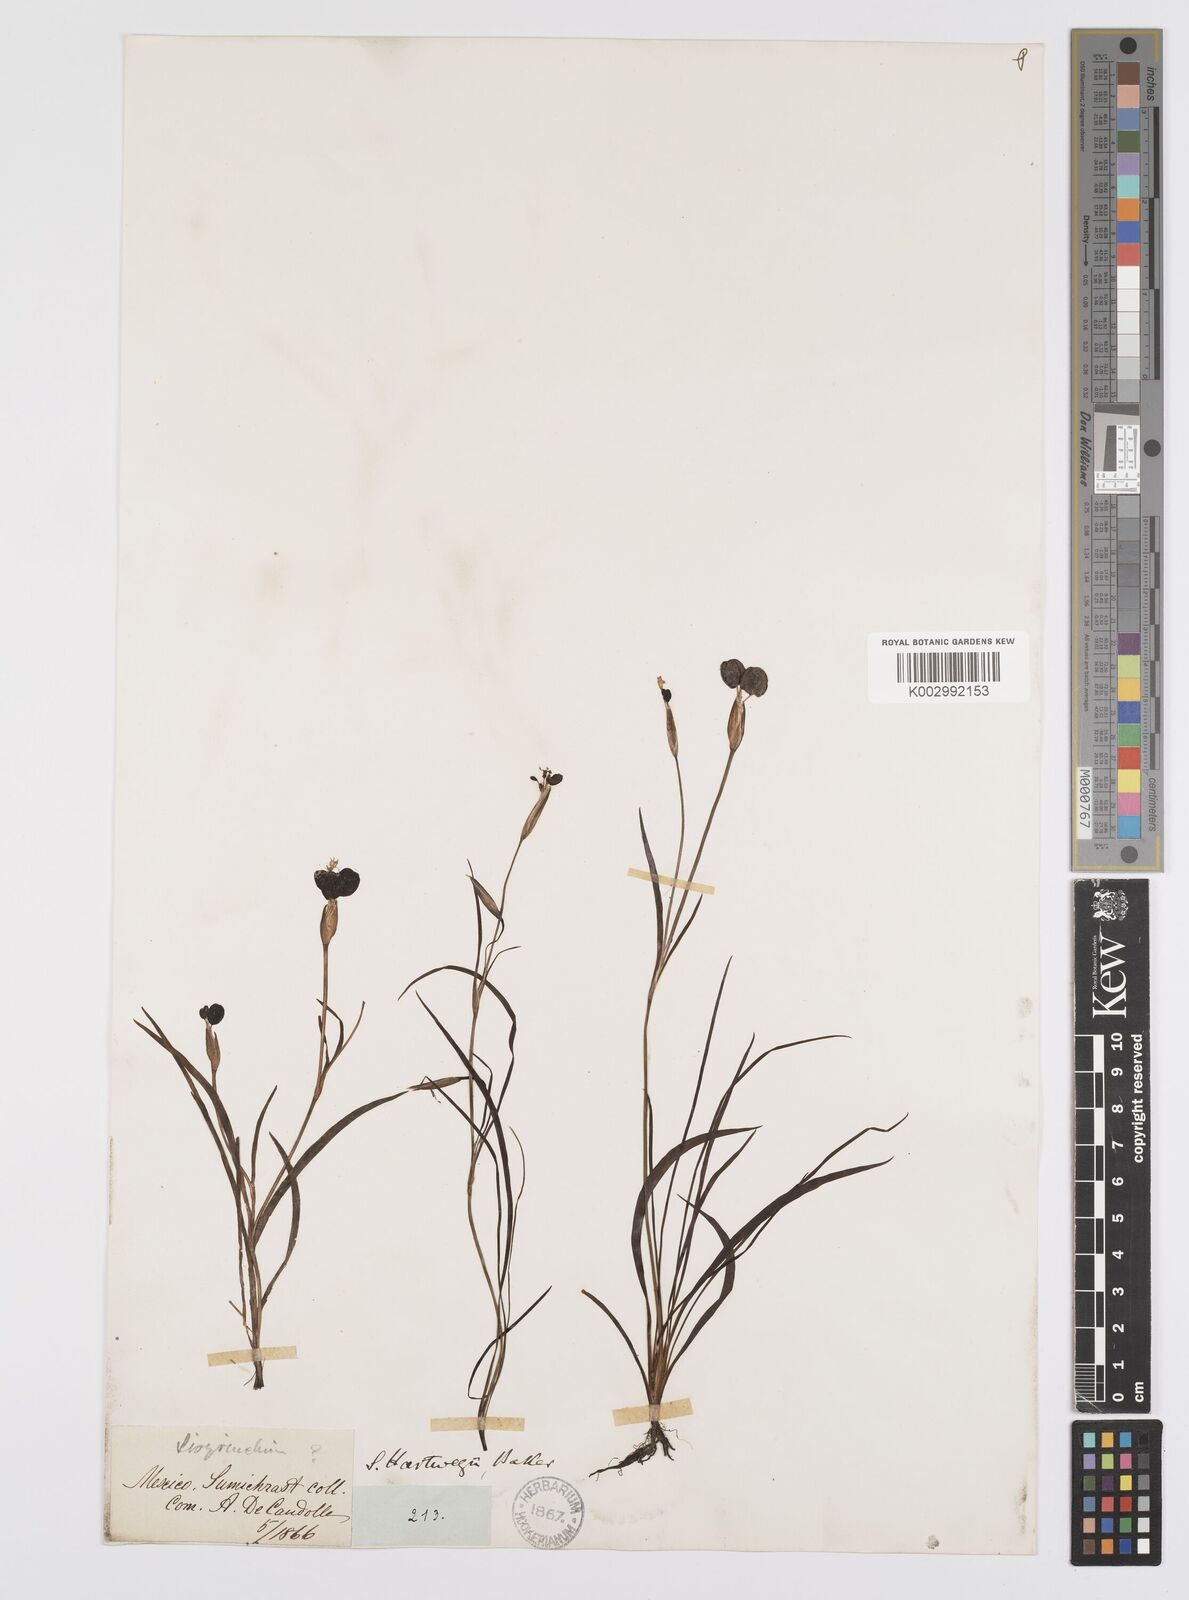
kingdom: Plantae
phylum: Tracheophyta
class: Liliopsida
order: Asparagales
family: Iridaceae
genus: Sisyrinchium
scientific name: Sisyrinchium tenuifolium
